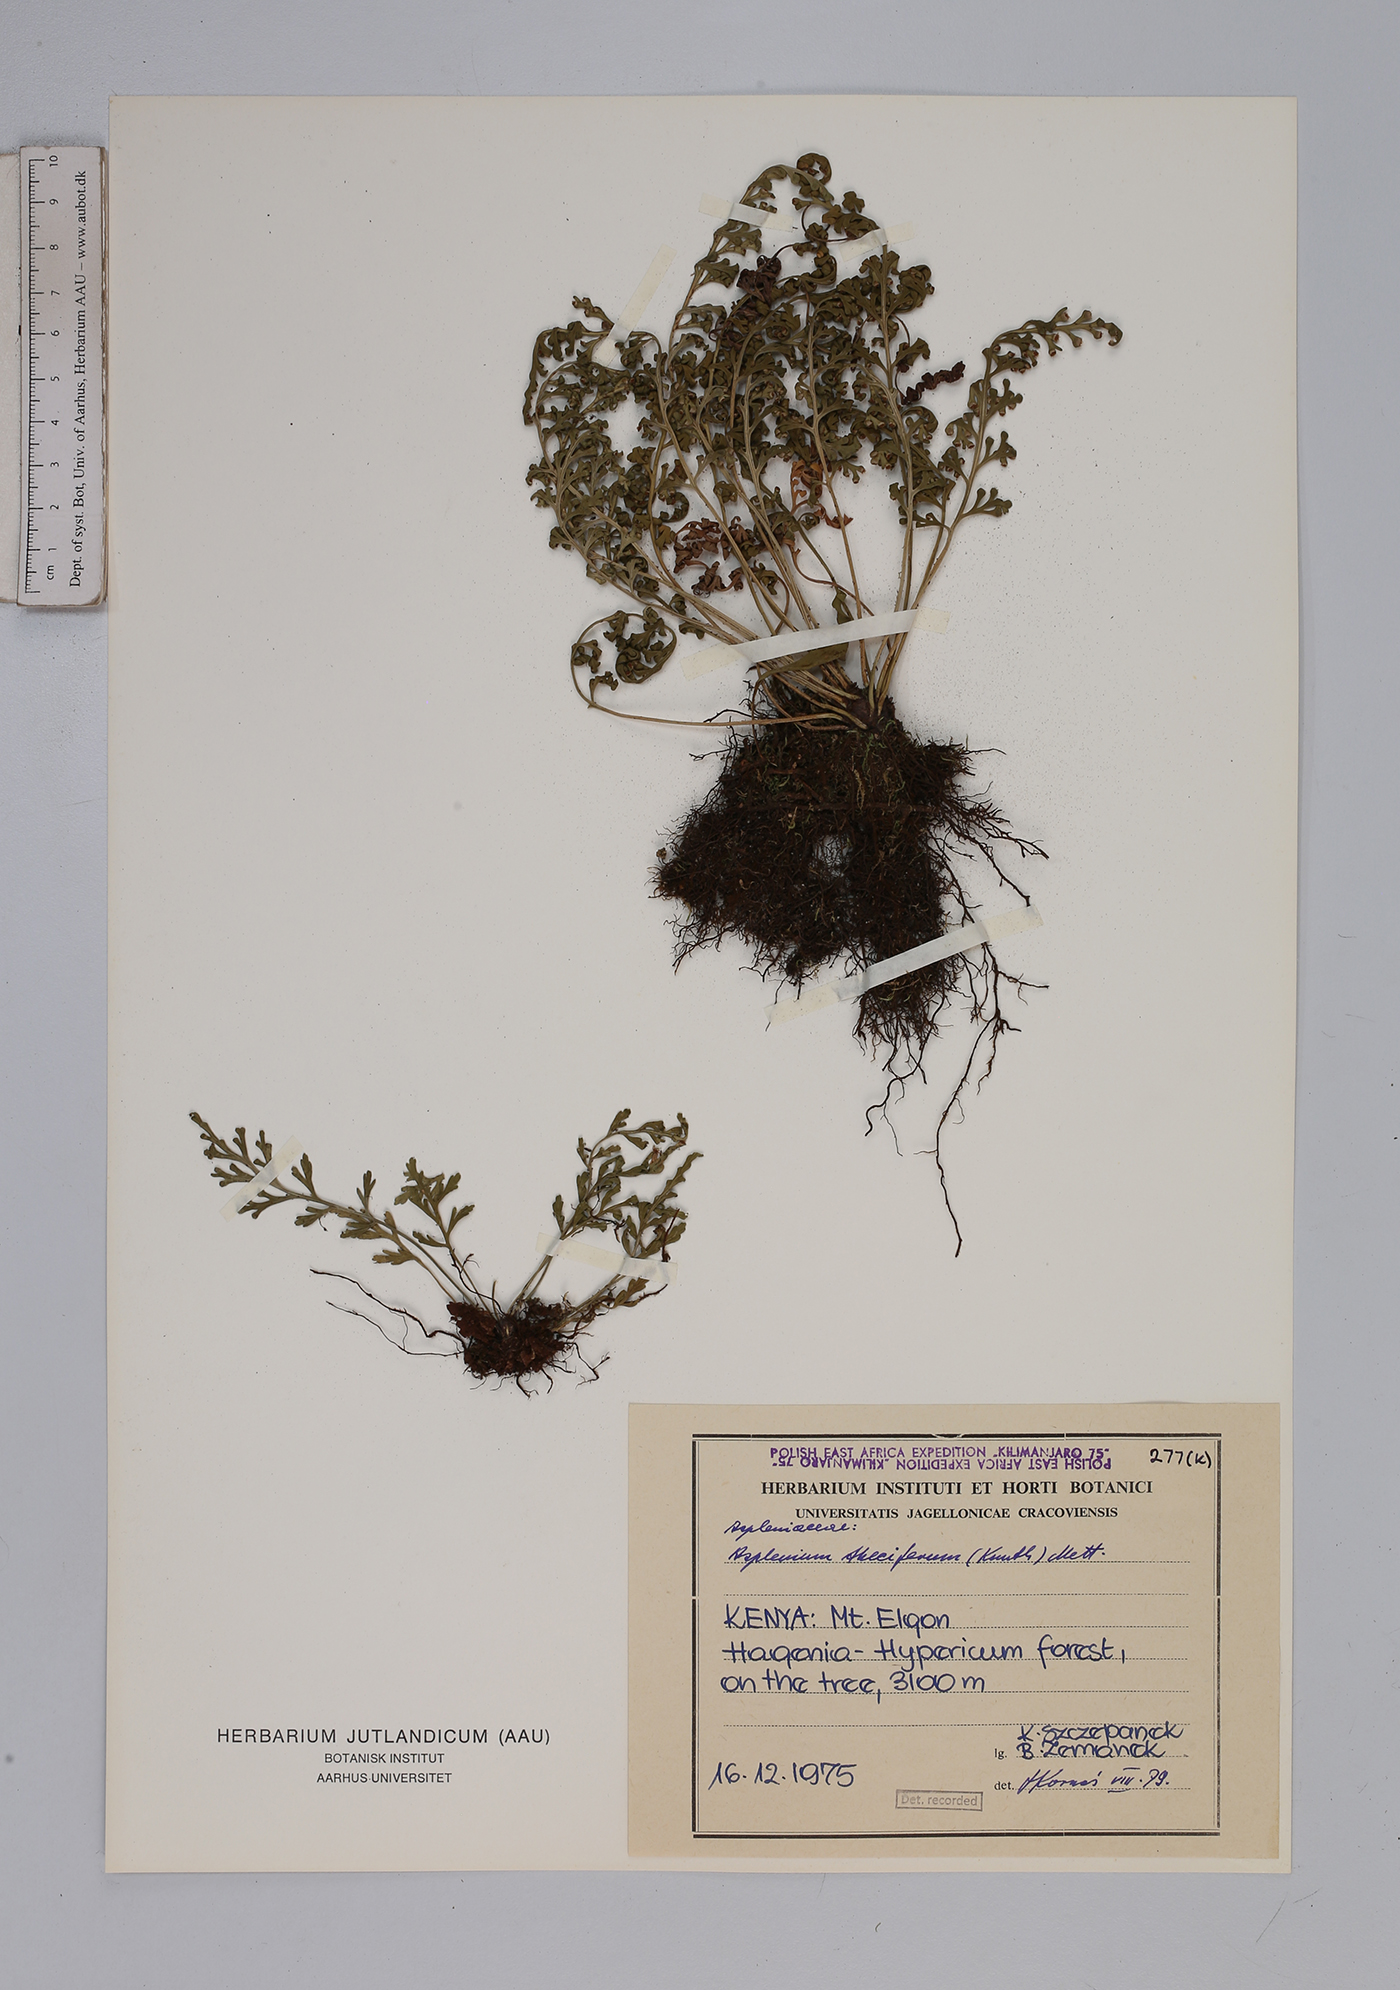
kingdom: Plantae
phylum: Tracheophyta
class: Polypodiopsida
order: Polypodiales
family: Aspleniaceae
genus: Asplenium
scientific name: Asplenium theciferum
